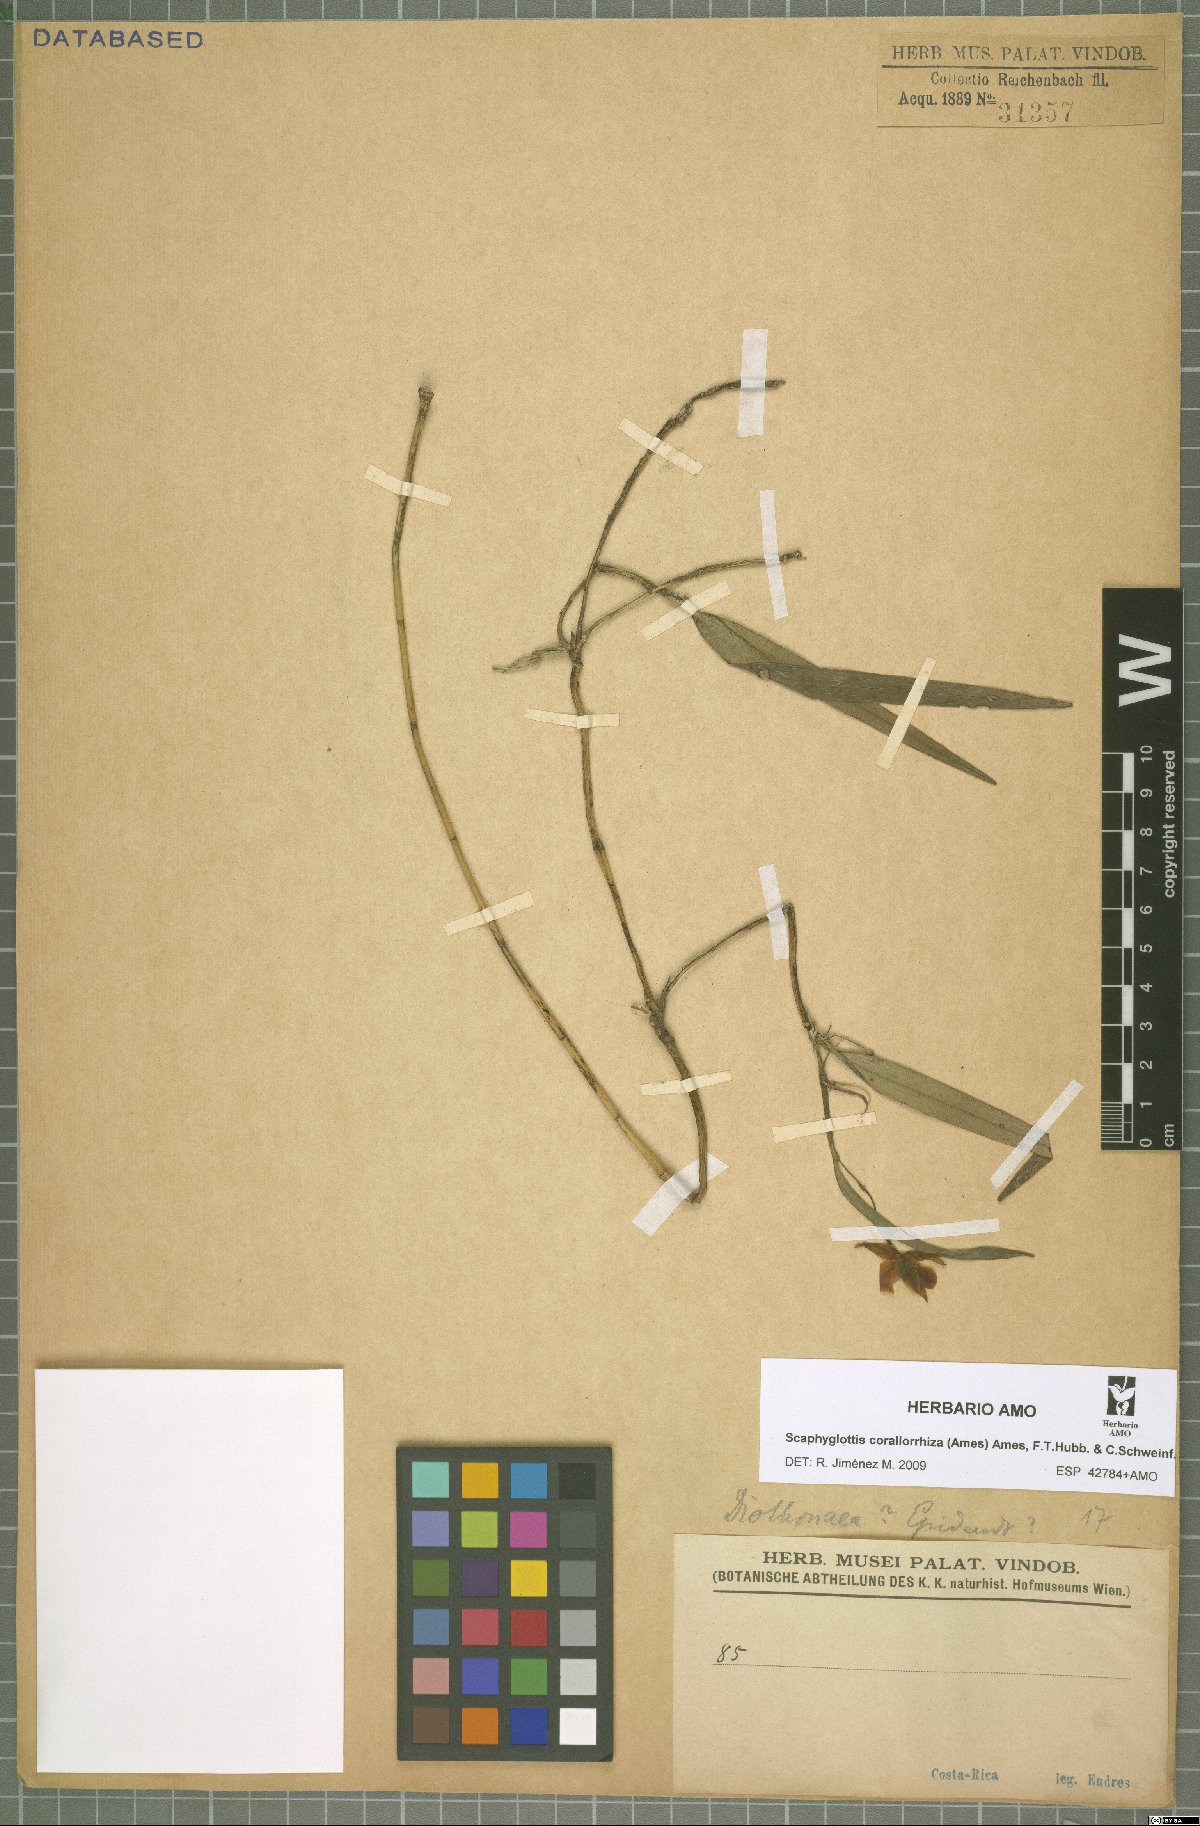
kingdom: Plantae
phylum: Tracheophyta
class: Liliopsida
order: Asparagales
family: Orchidaceae
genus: Scaphyglottis
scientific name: Scaphyglottis corallorrhiza
